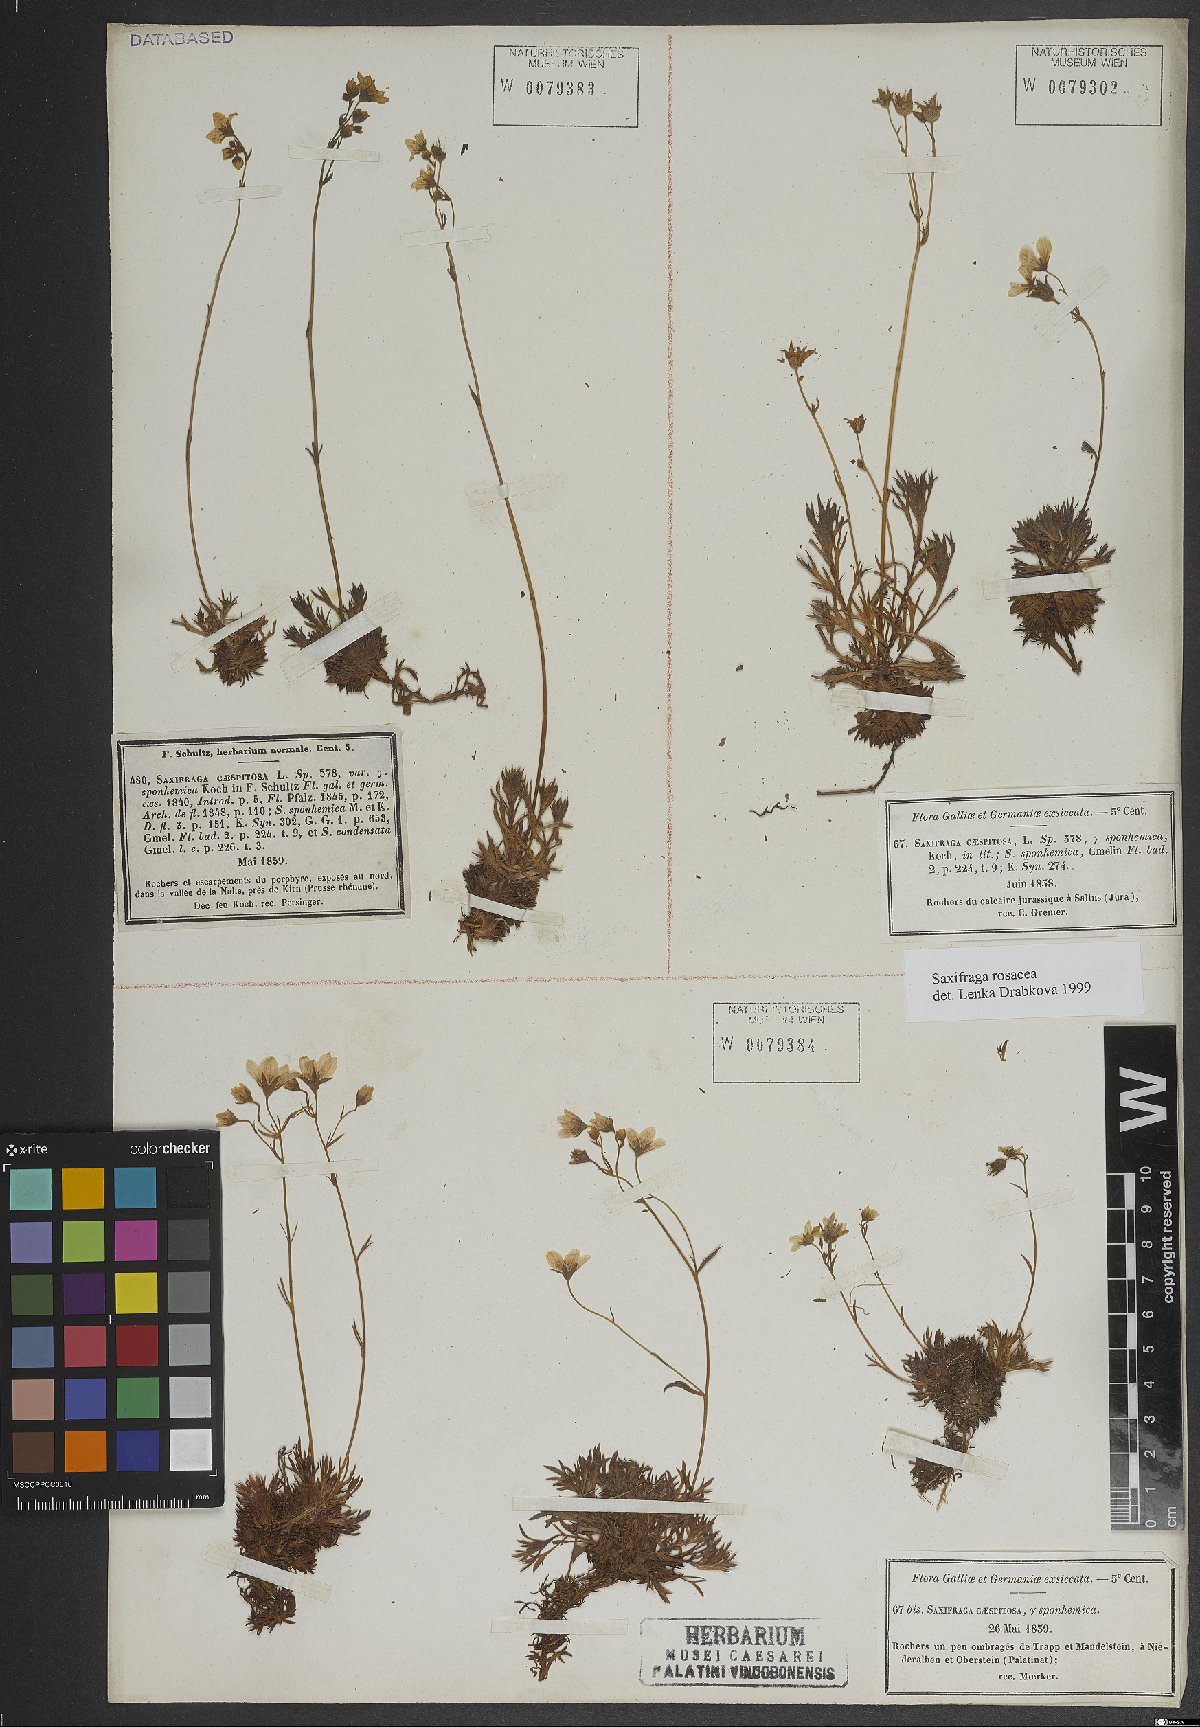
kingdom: Plantae
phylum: Tracheophyta
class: Magnoliopsida
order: Saxifragales
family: Saxifragaceae
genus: Saxifraga
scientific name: Saxifraga rosacea
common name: Irish saxifrage
